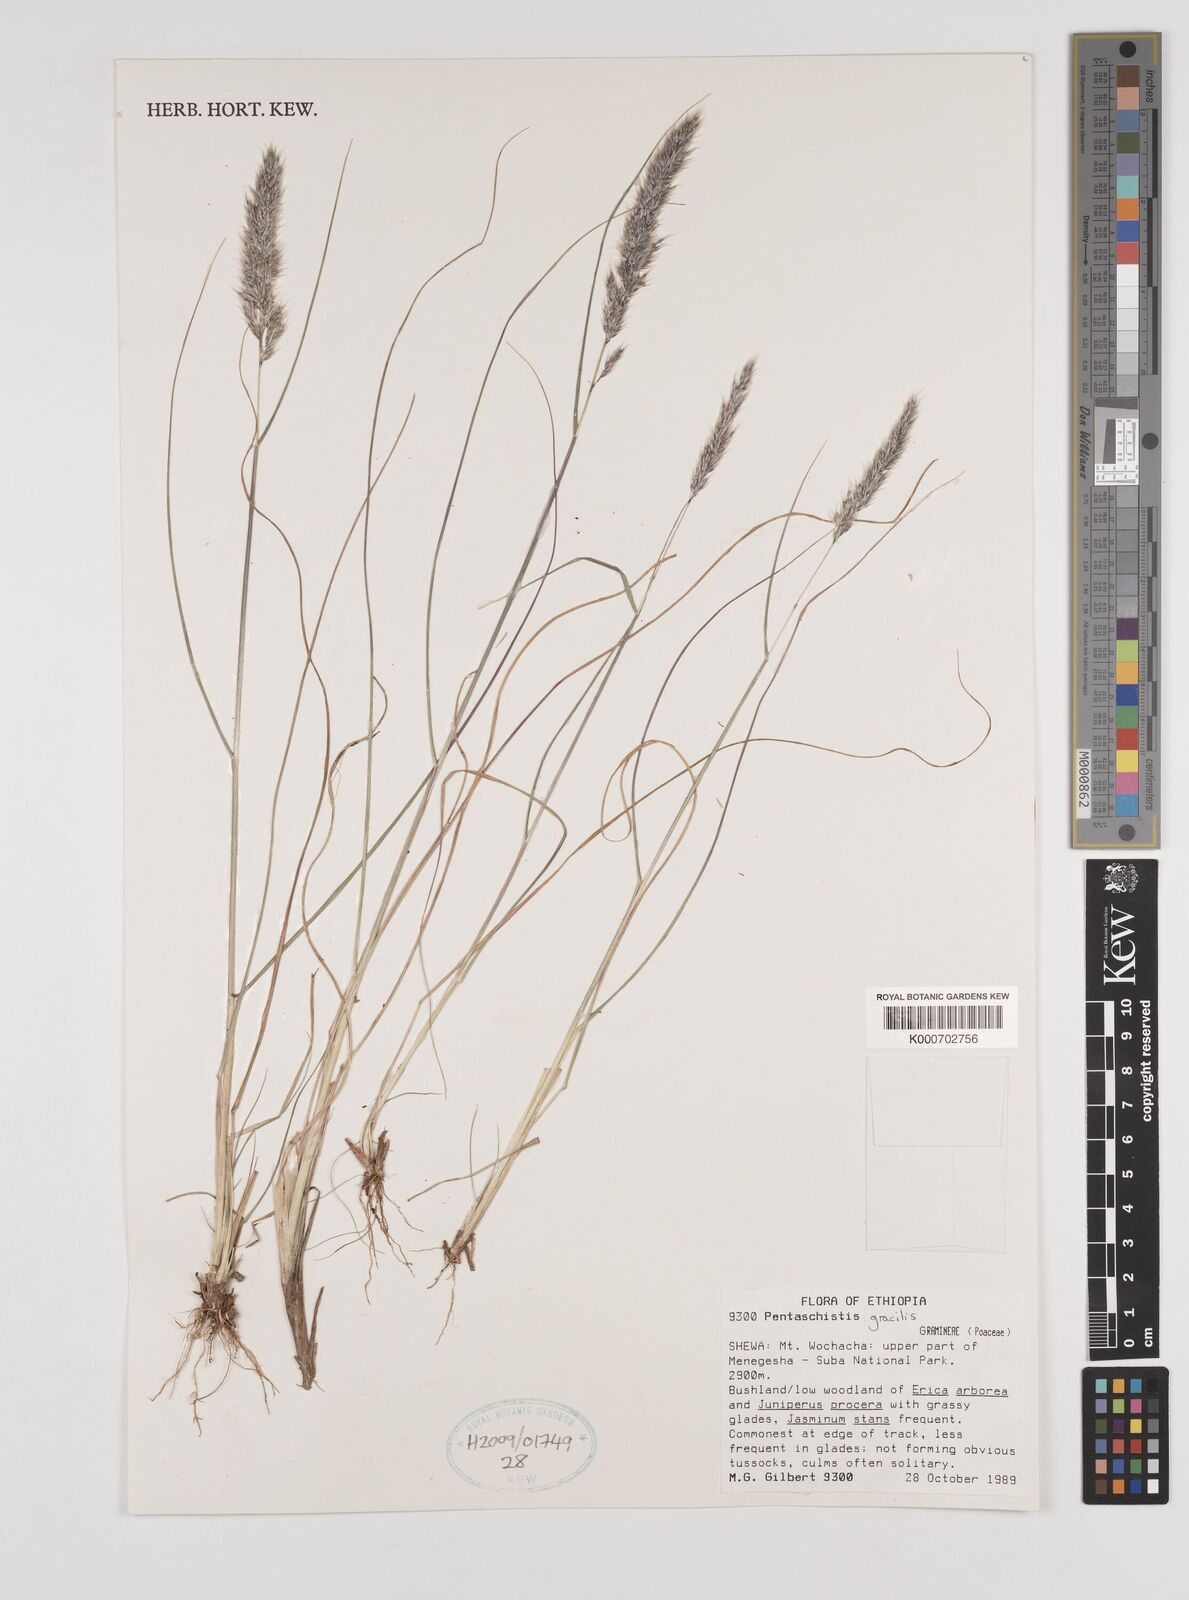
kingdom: Plantae
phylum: Tracheophyta
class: Liliopsida
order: Poales
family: Poaceae
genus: Pentameris
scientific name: Pentameris pictigluma
